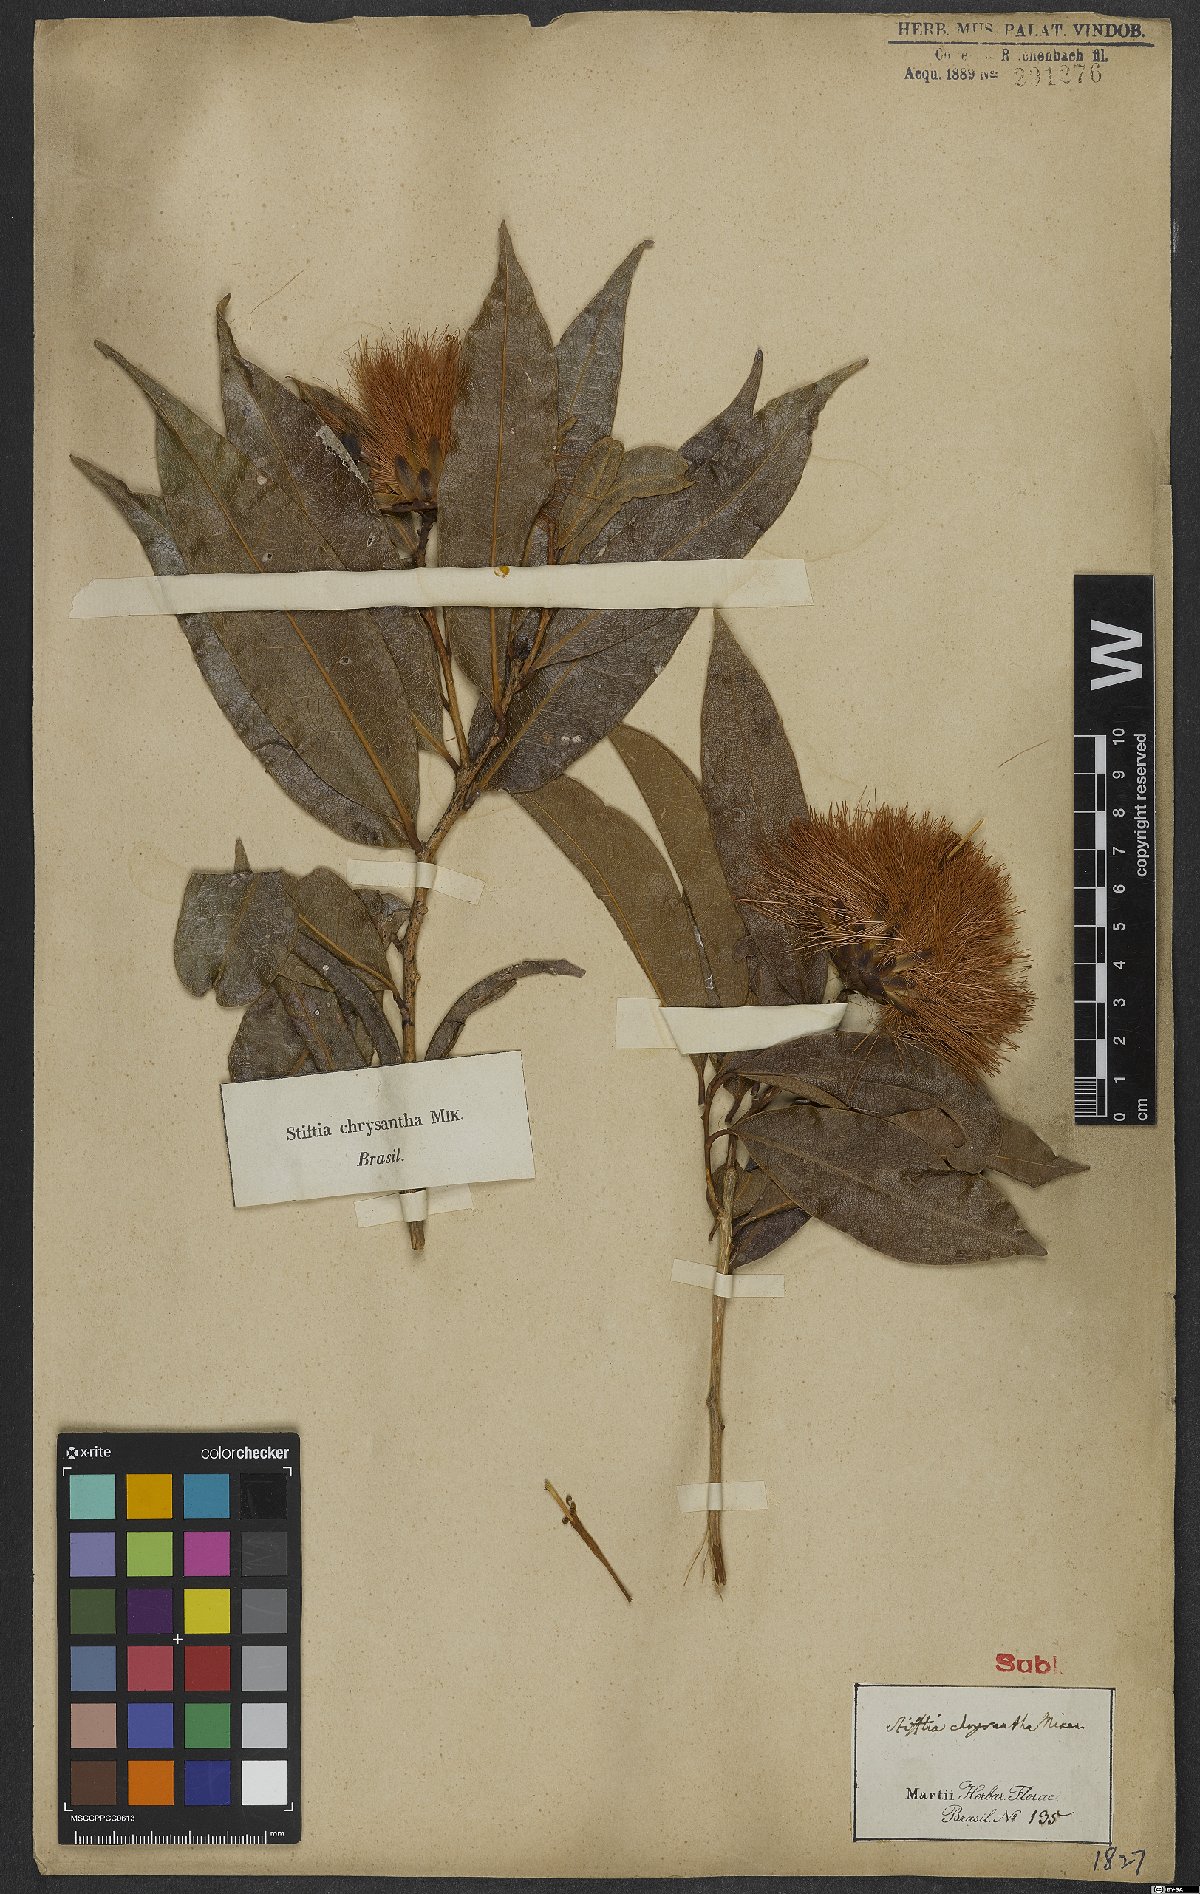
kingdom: Plantae
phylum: Tracheophyta
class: Magnoliopsida
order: Asterales
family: Asteraceae
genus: Stifftia
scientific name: Stifftia chrysantha
